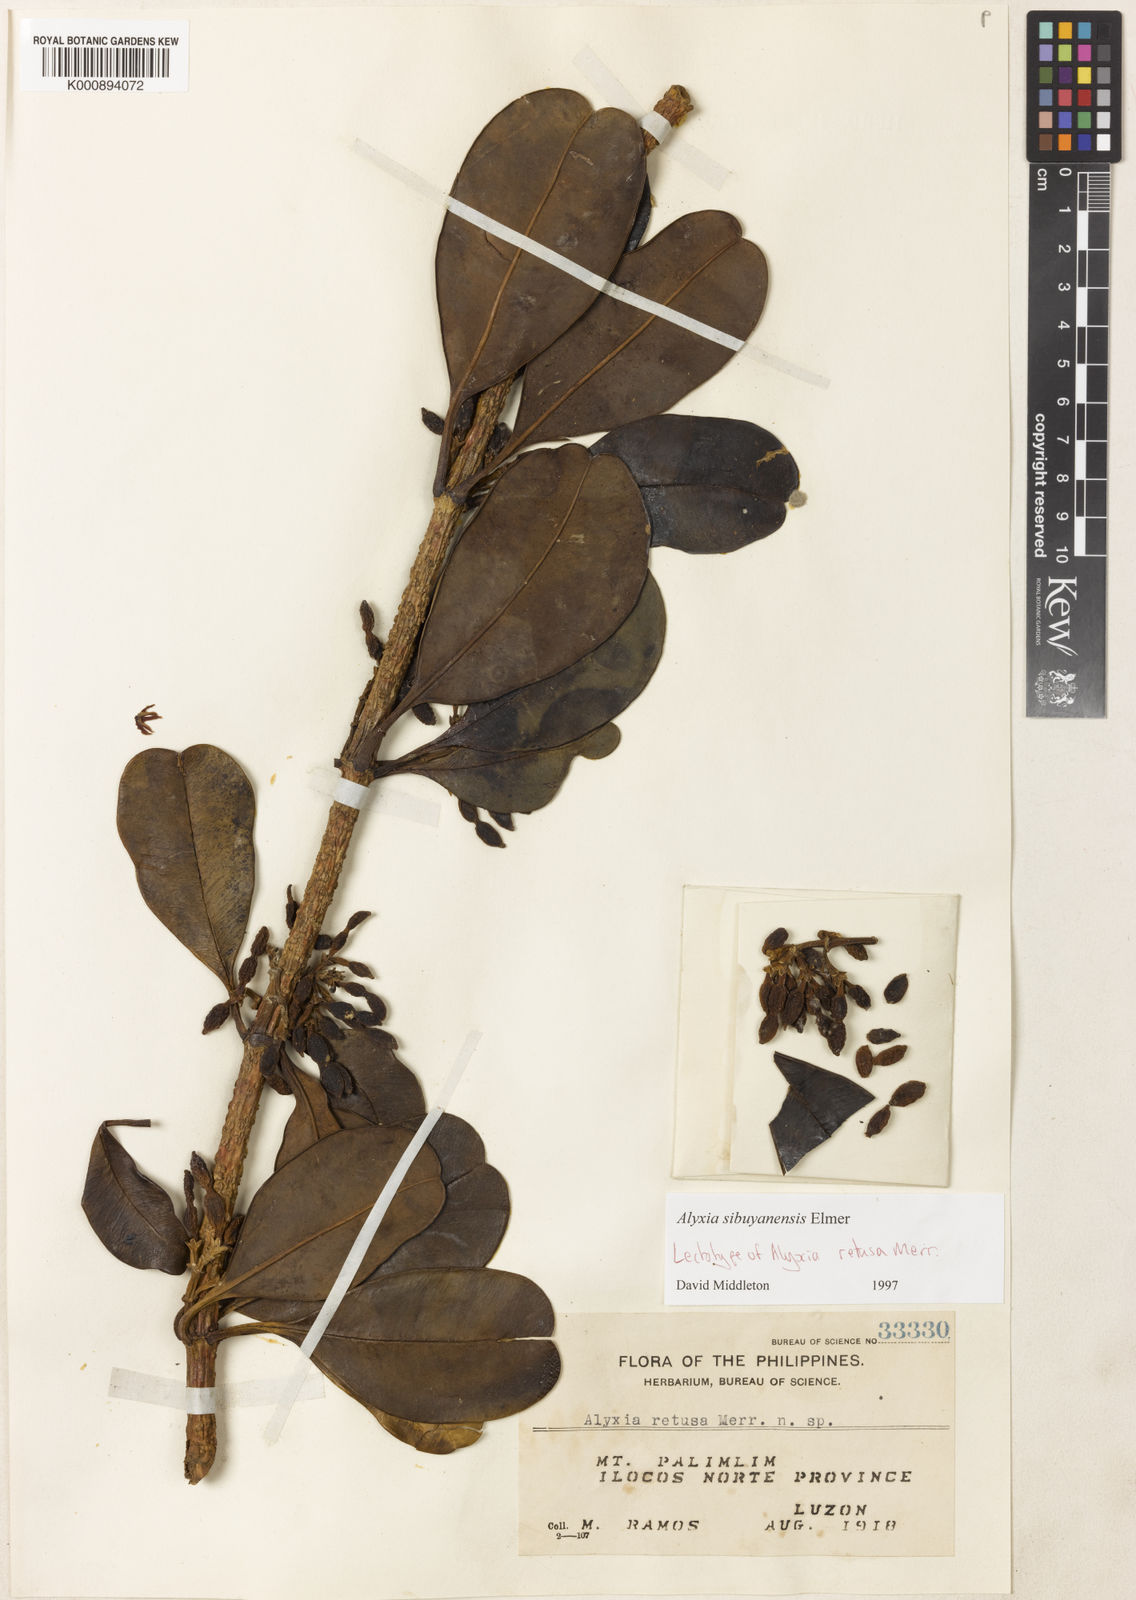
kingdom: Plantae
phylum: Tracheophyta
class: Magnoliopsida
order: Gentianales
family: Apocynaceae
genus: Alyxia
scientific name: Alyxia monticola
